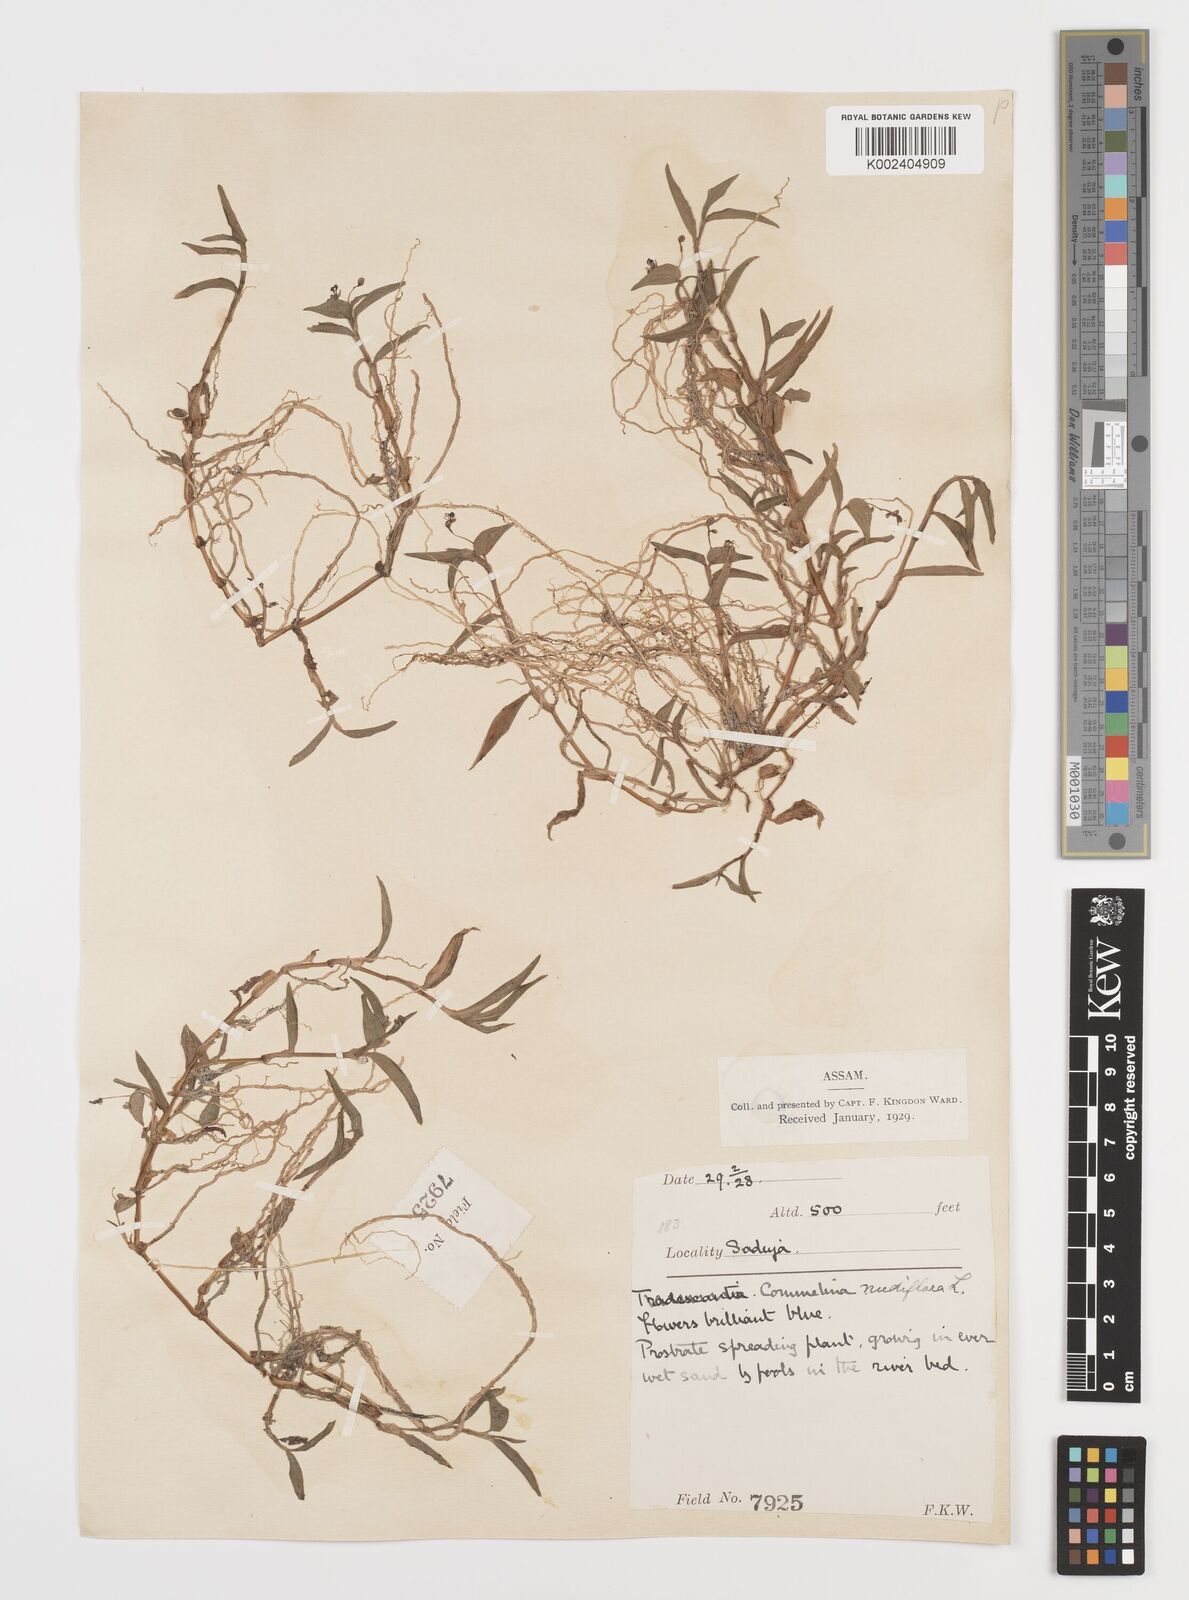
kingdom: Plantae
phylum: Tracheophyta
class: Liliopsida
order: Commelinales
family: Commelinaceae
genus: Commelina
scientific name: Commelina diffusa
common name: Climbing dayflower
